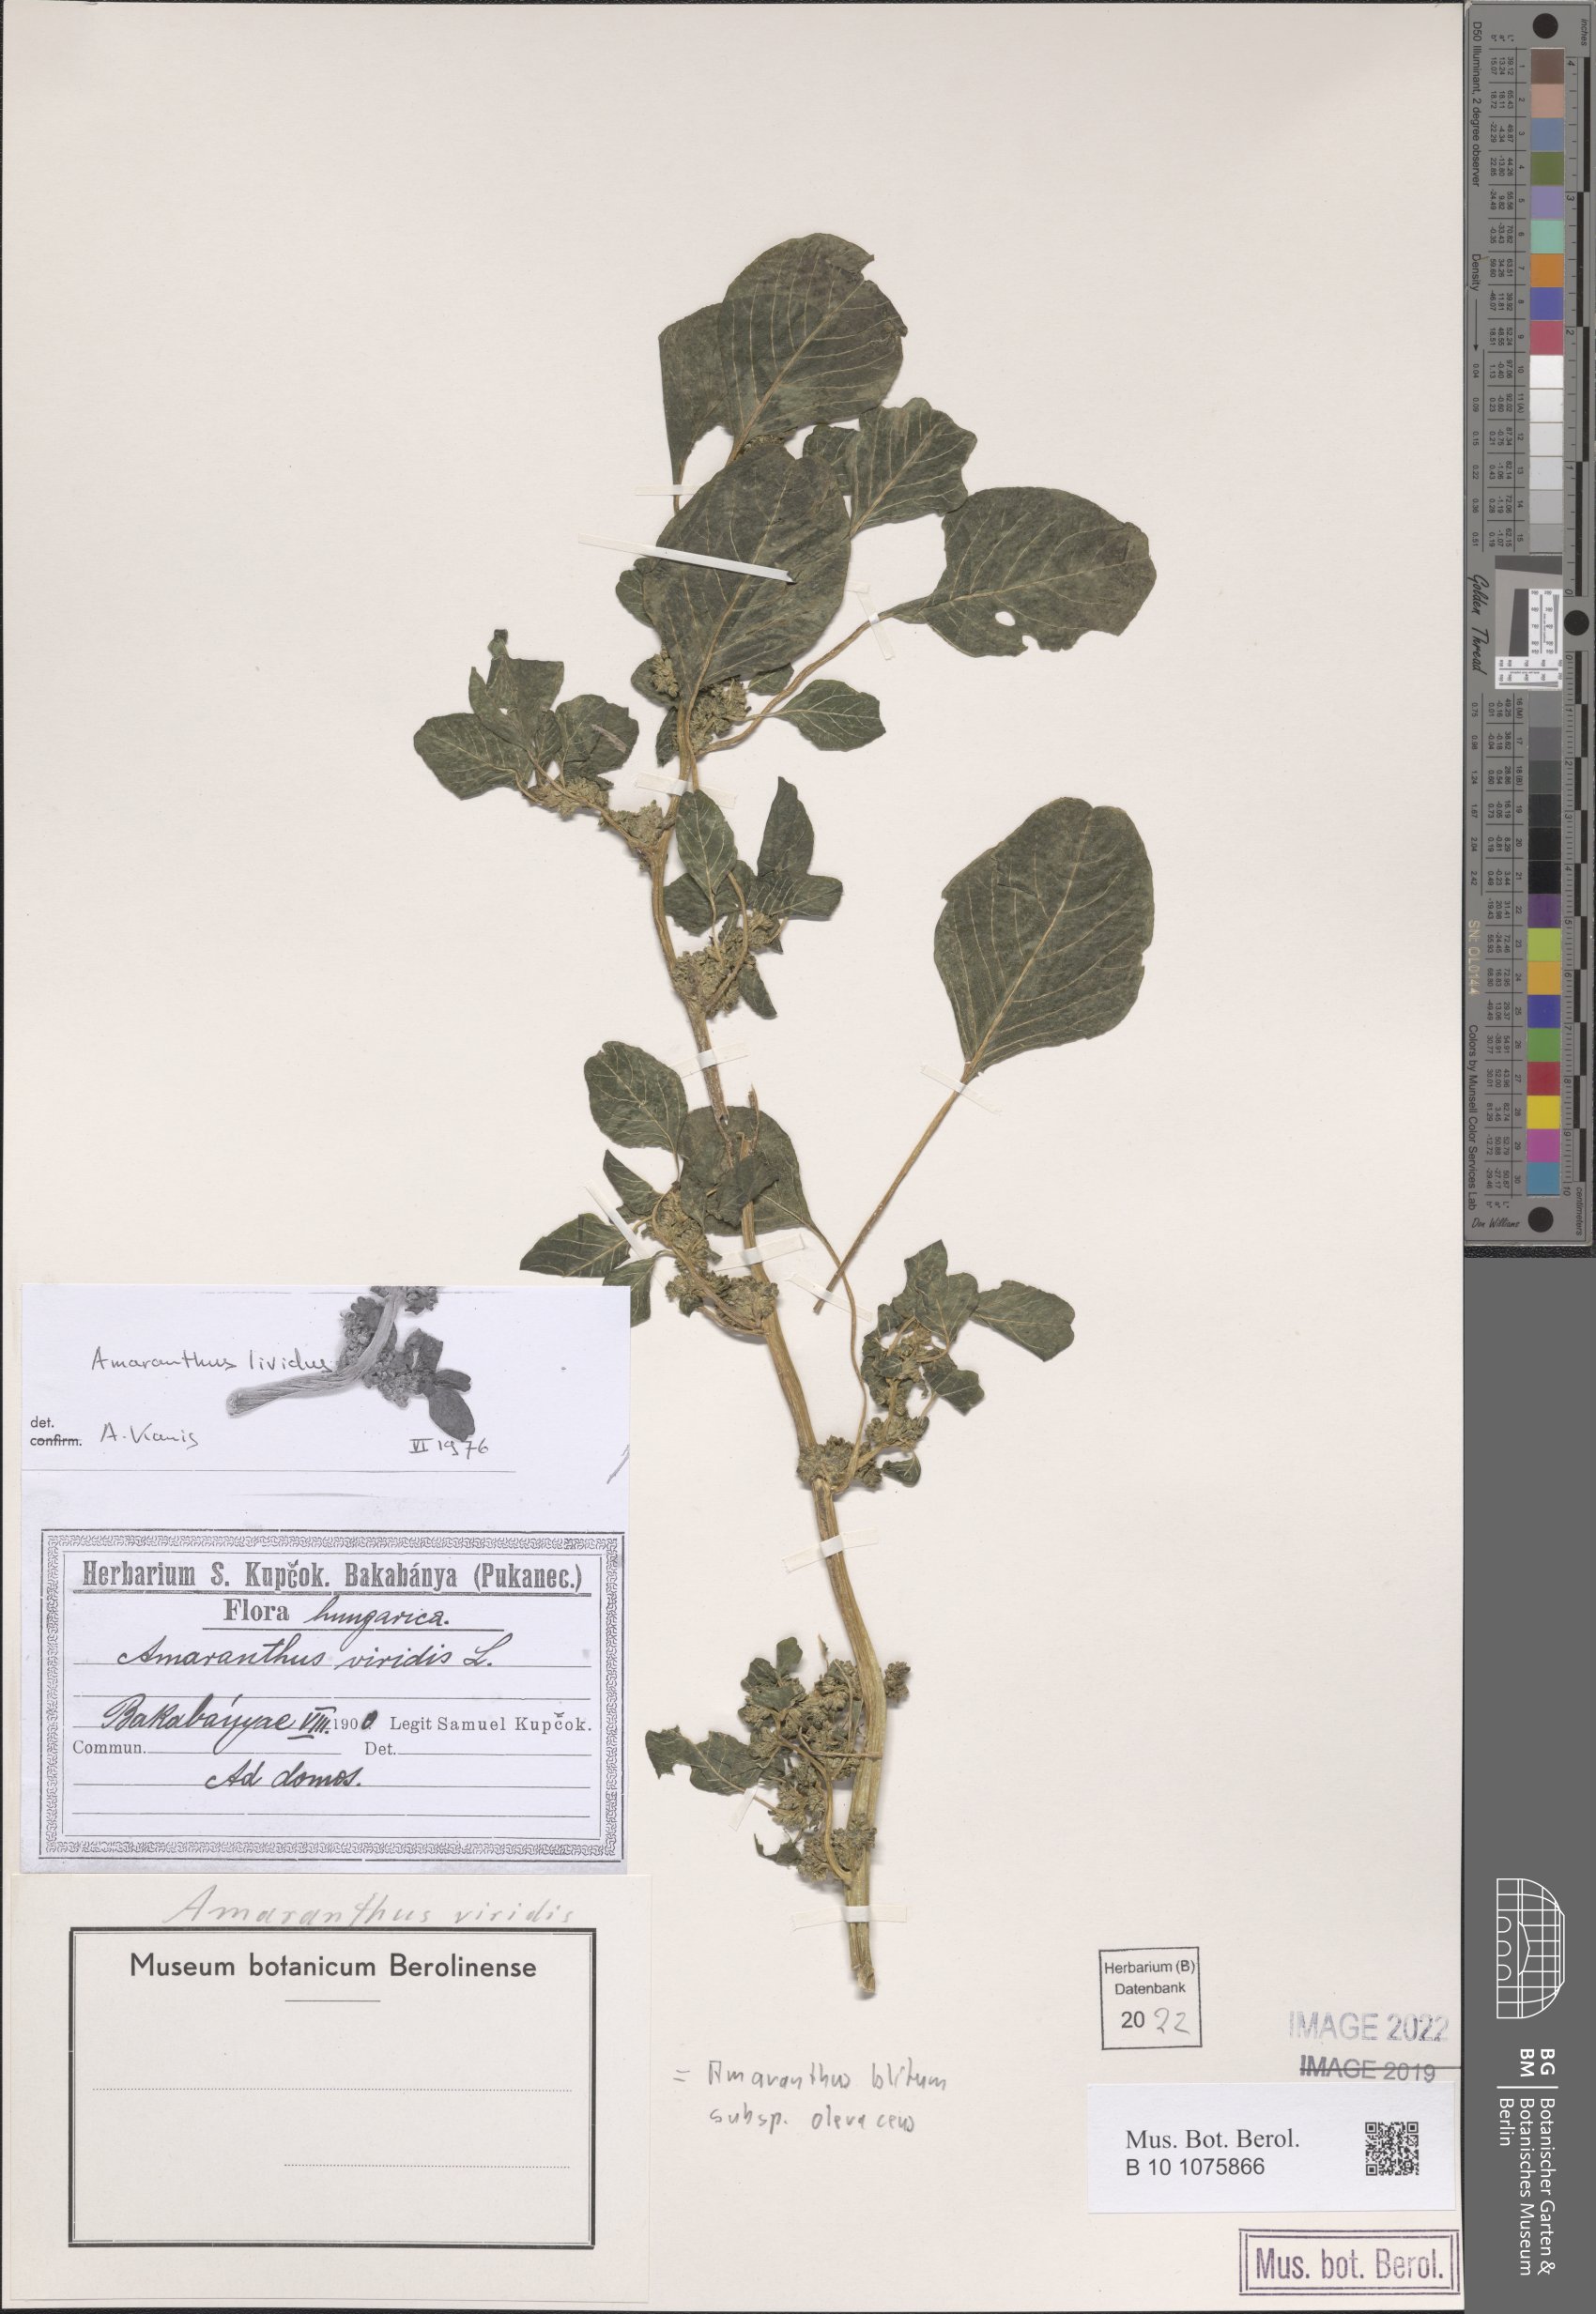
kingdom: Plantae
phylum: Tracheophyta
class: Magnoliopsida
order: Caryophyllales
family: Amaranthaceae
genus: Amaranthus
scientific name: Amaranthus blitum
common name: Purple amaranth
